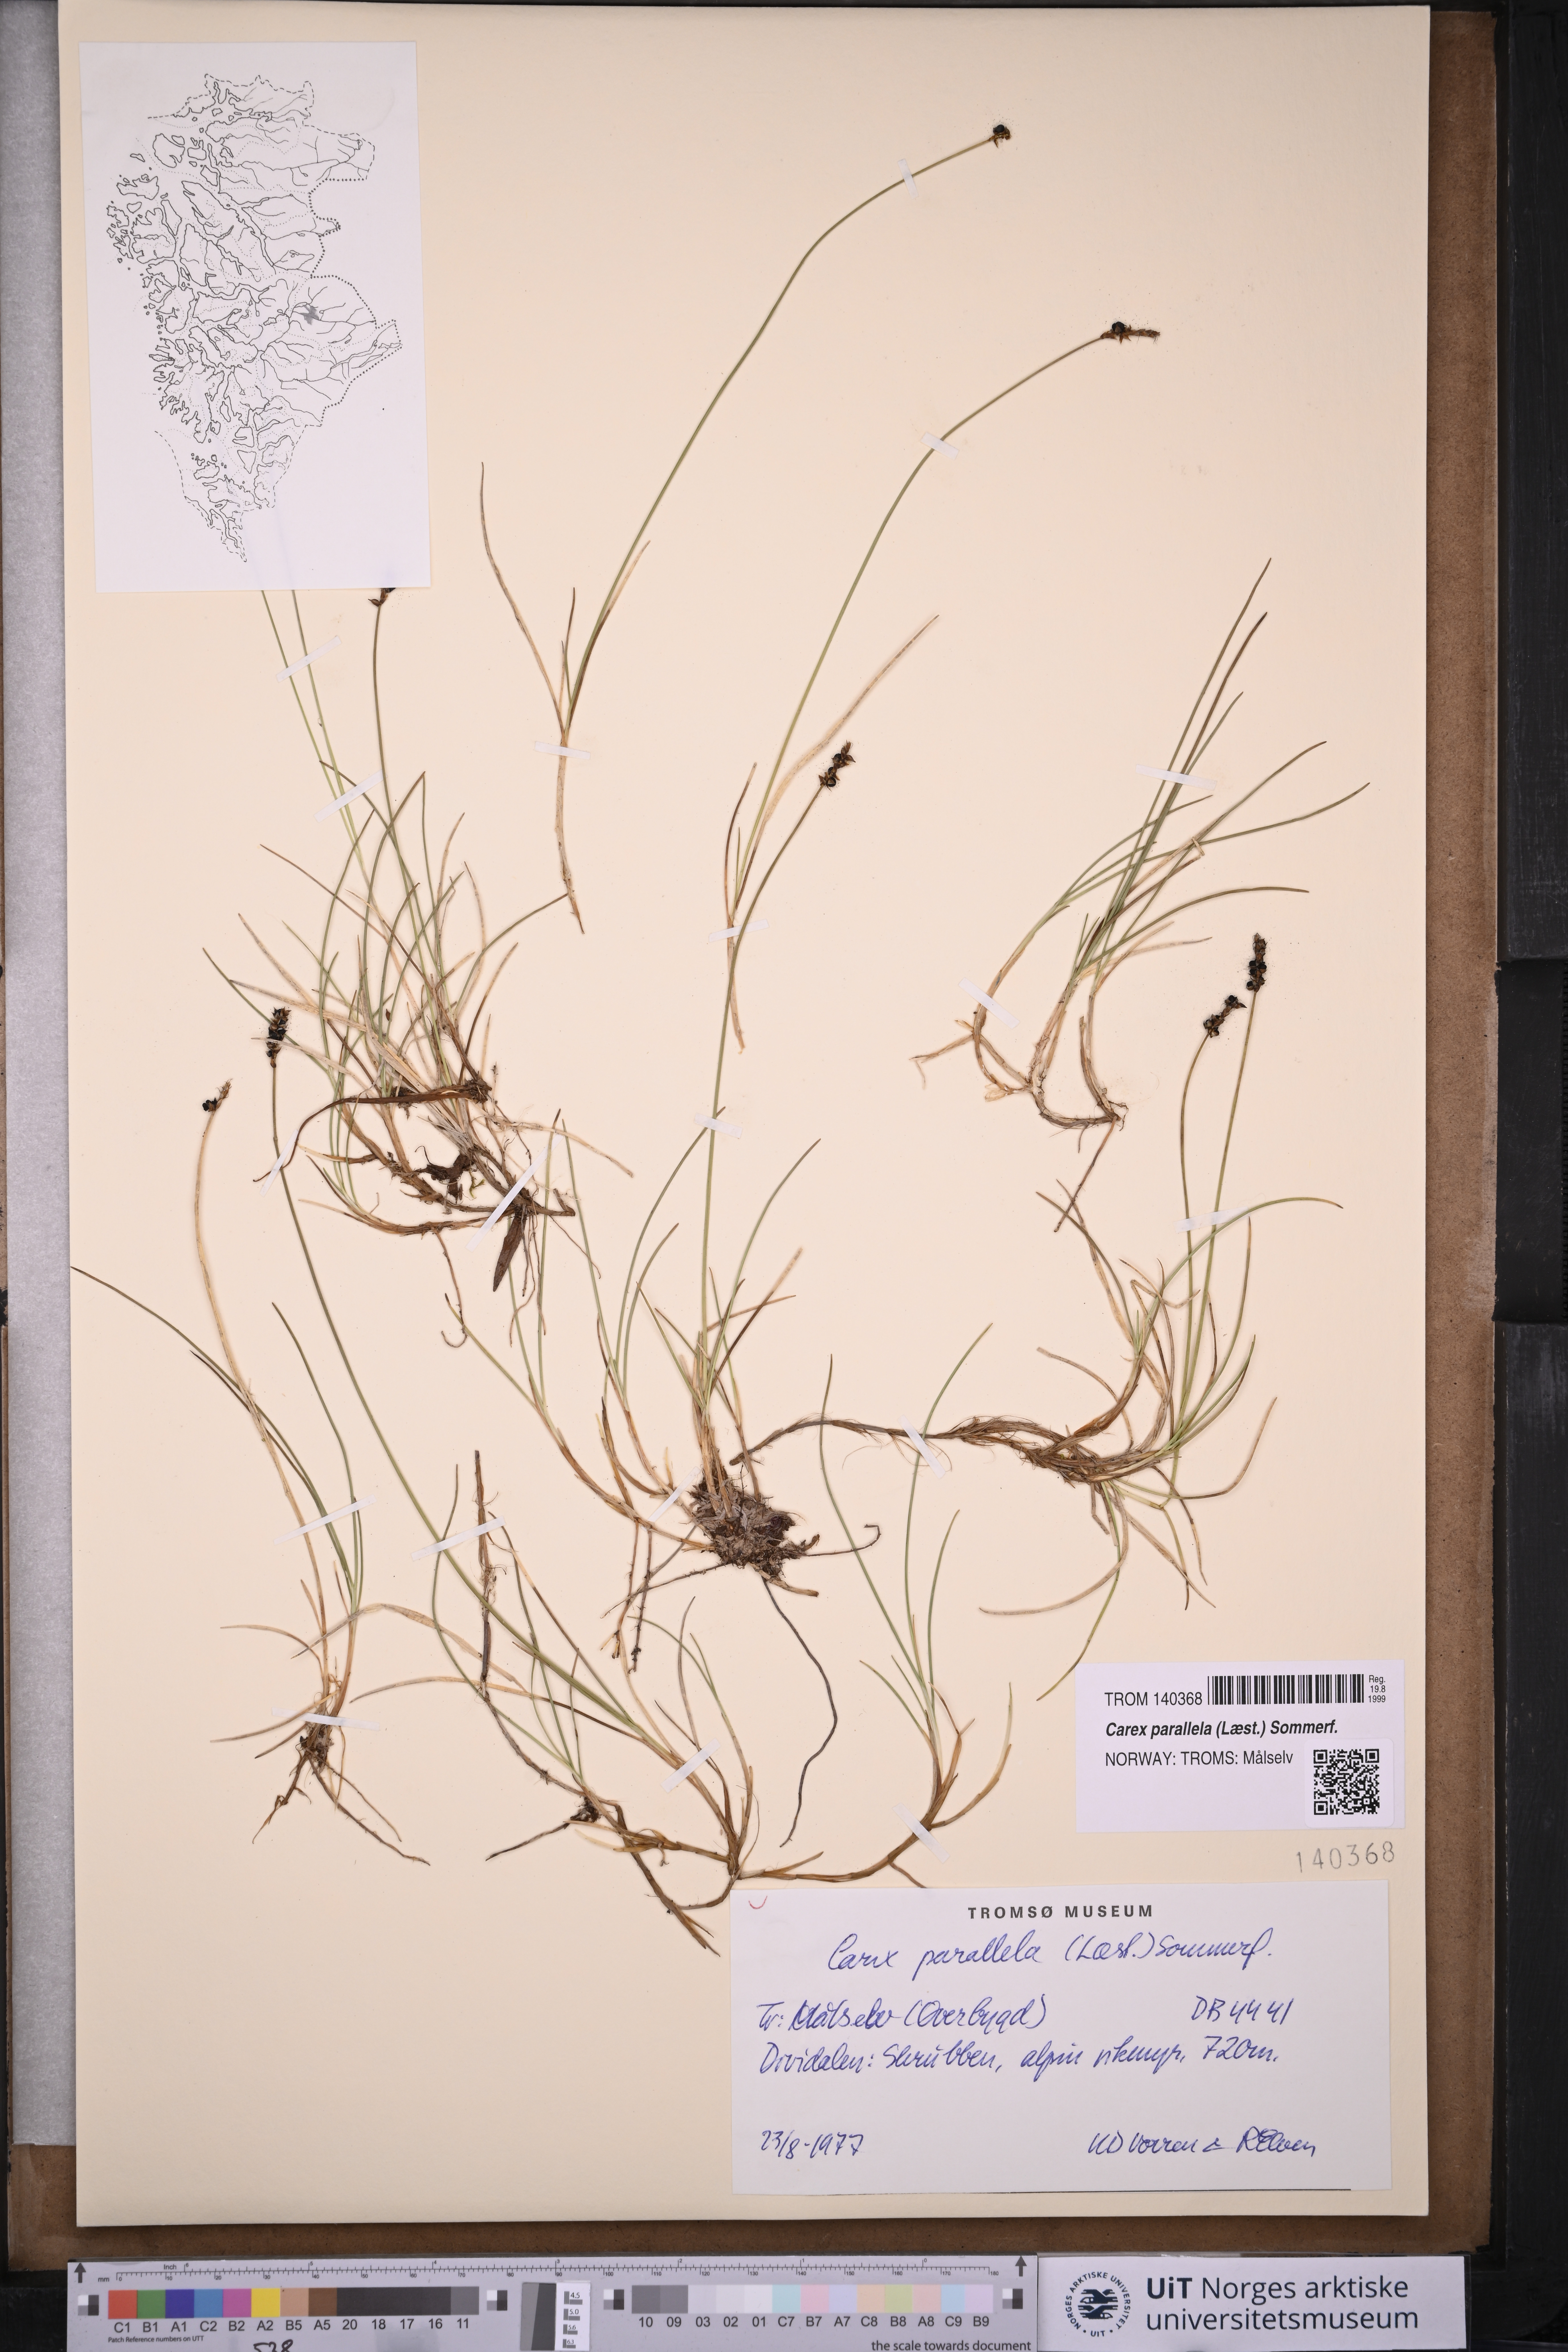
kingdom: Plantae
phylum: Tracheophyta
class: Liliopsida
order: Poales
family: Cyperaceae
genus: Carex
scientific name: Carex parallela
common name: Parallel sedge
